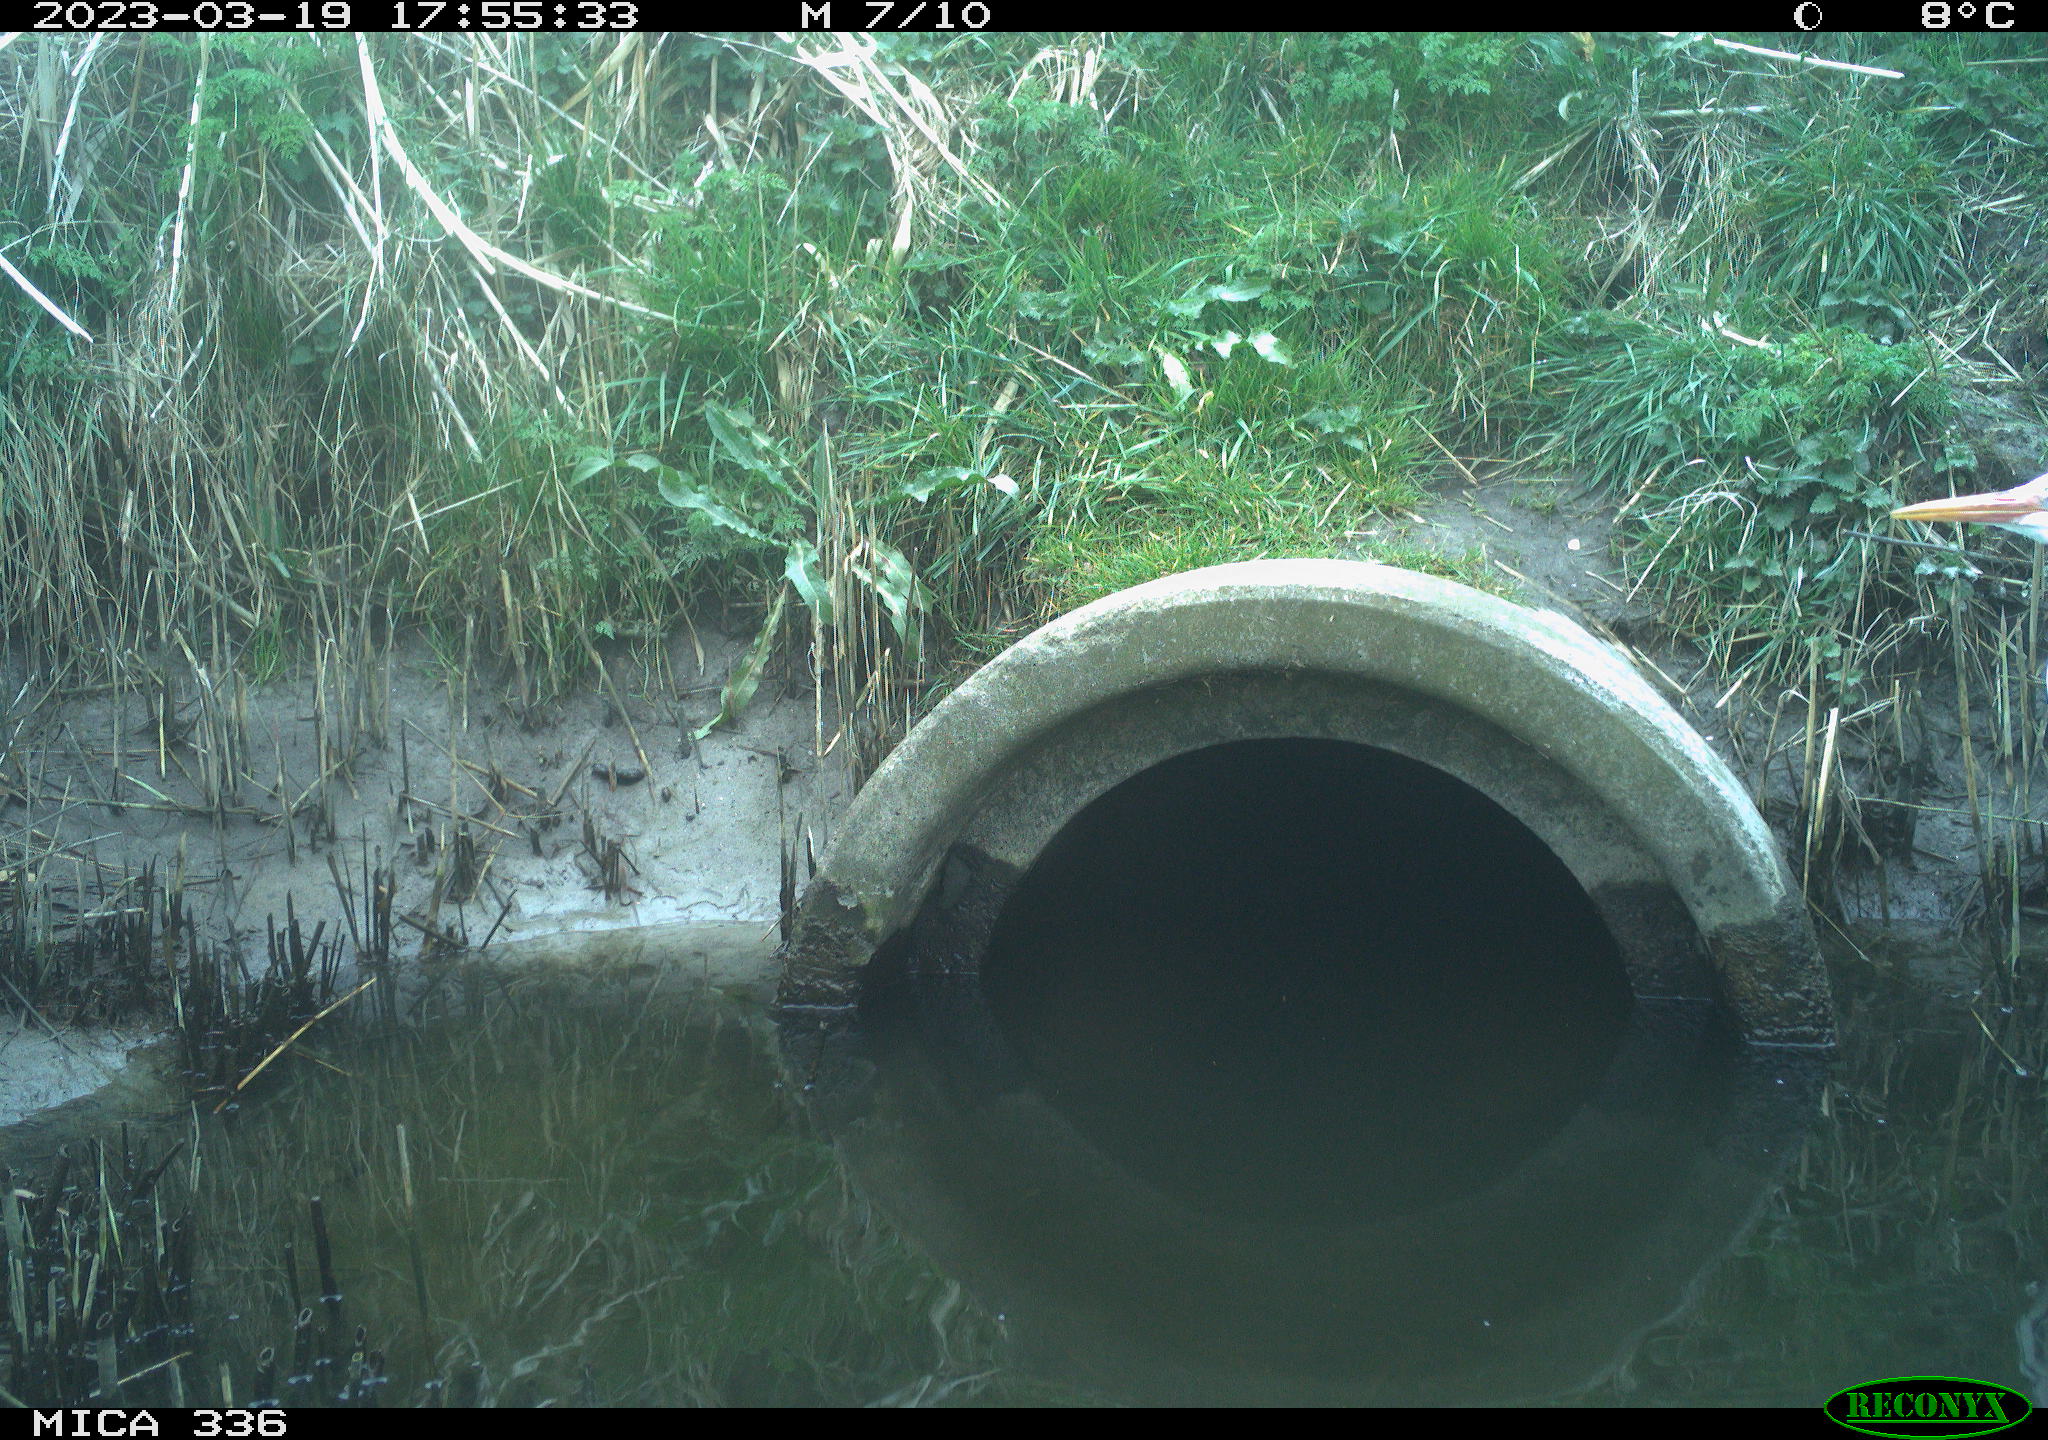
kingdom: Animalia
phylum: Chordata
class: Aves
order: Pelecaniformes
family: Ardeidae
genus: Ardea
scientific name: Ardea cinerea
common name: Grey heron
